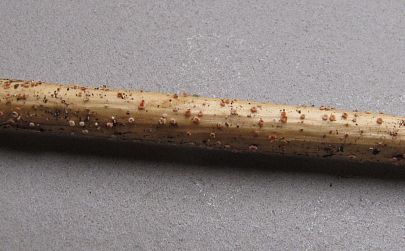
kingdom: Fungi
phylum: Ascomycota
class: Leotiomycetes
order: Helotiales
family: Solenopeziaceae
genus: Lasiobelonium
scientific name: Lasiobelonium nidulus
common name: rede-frynseskive
